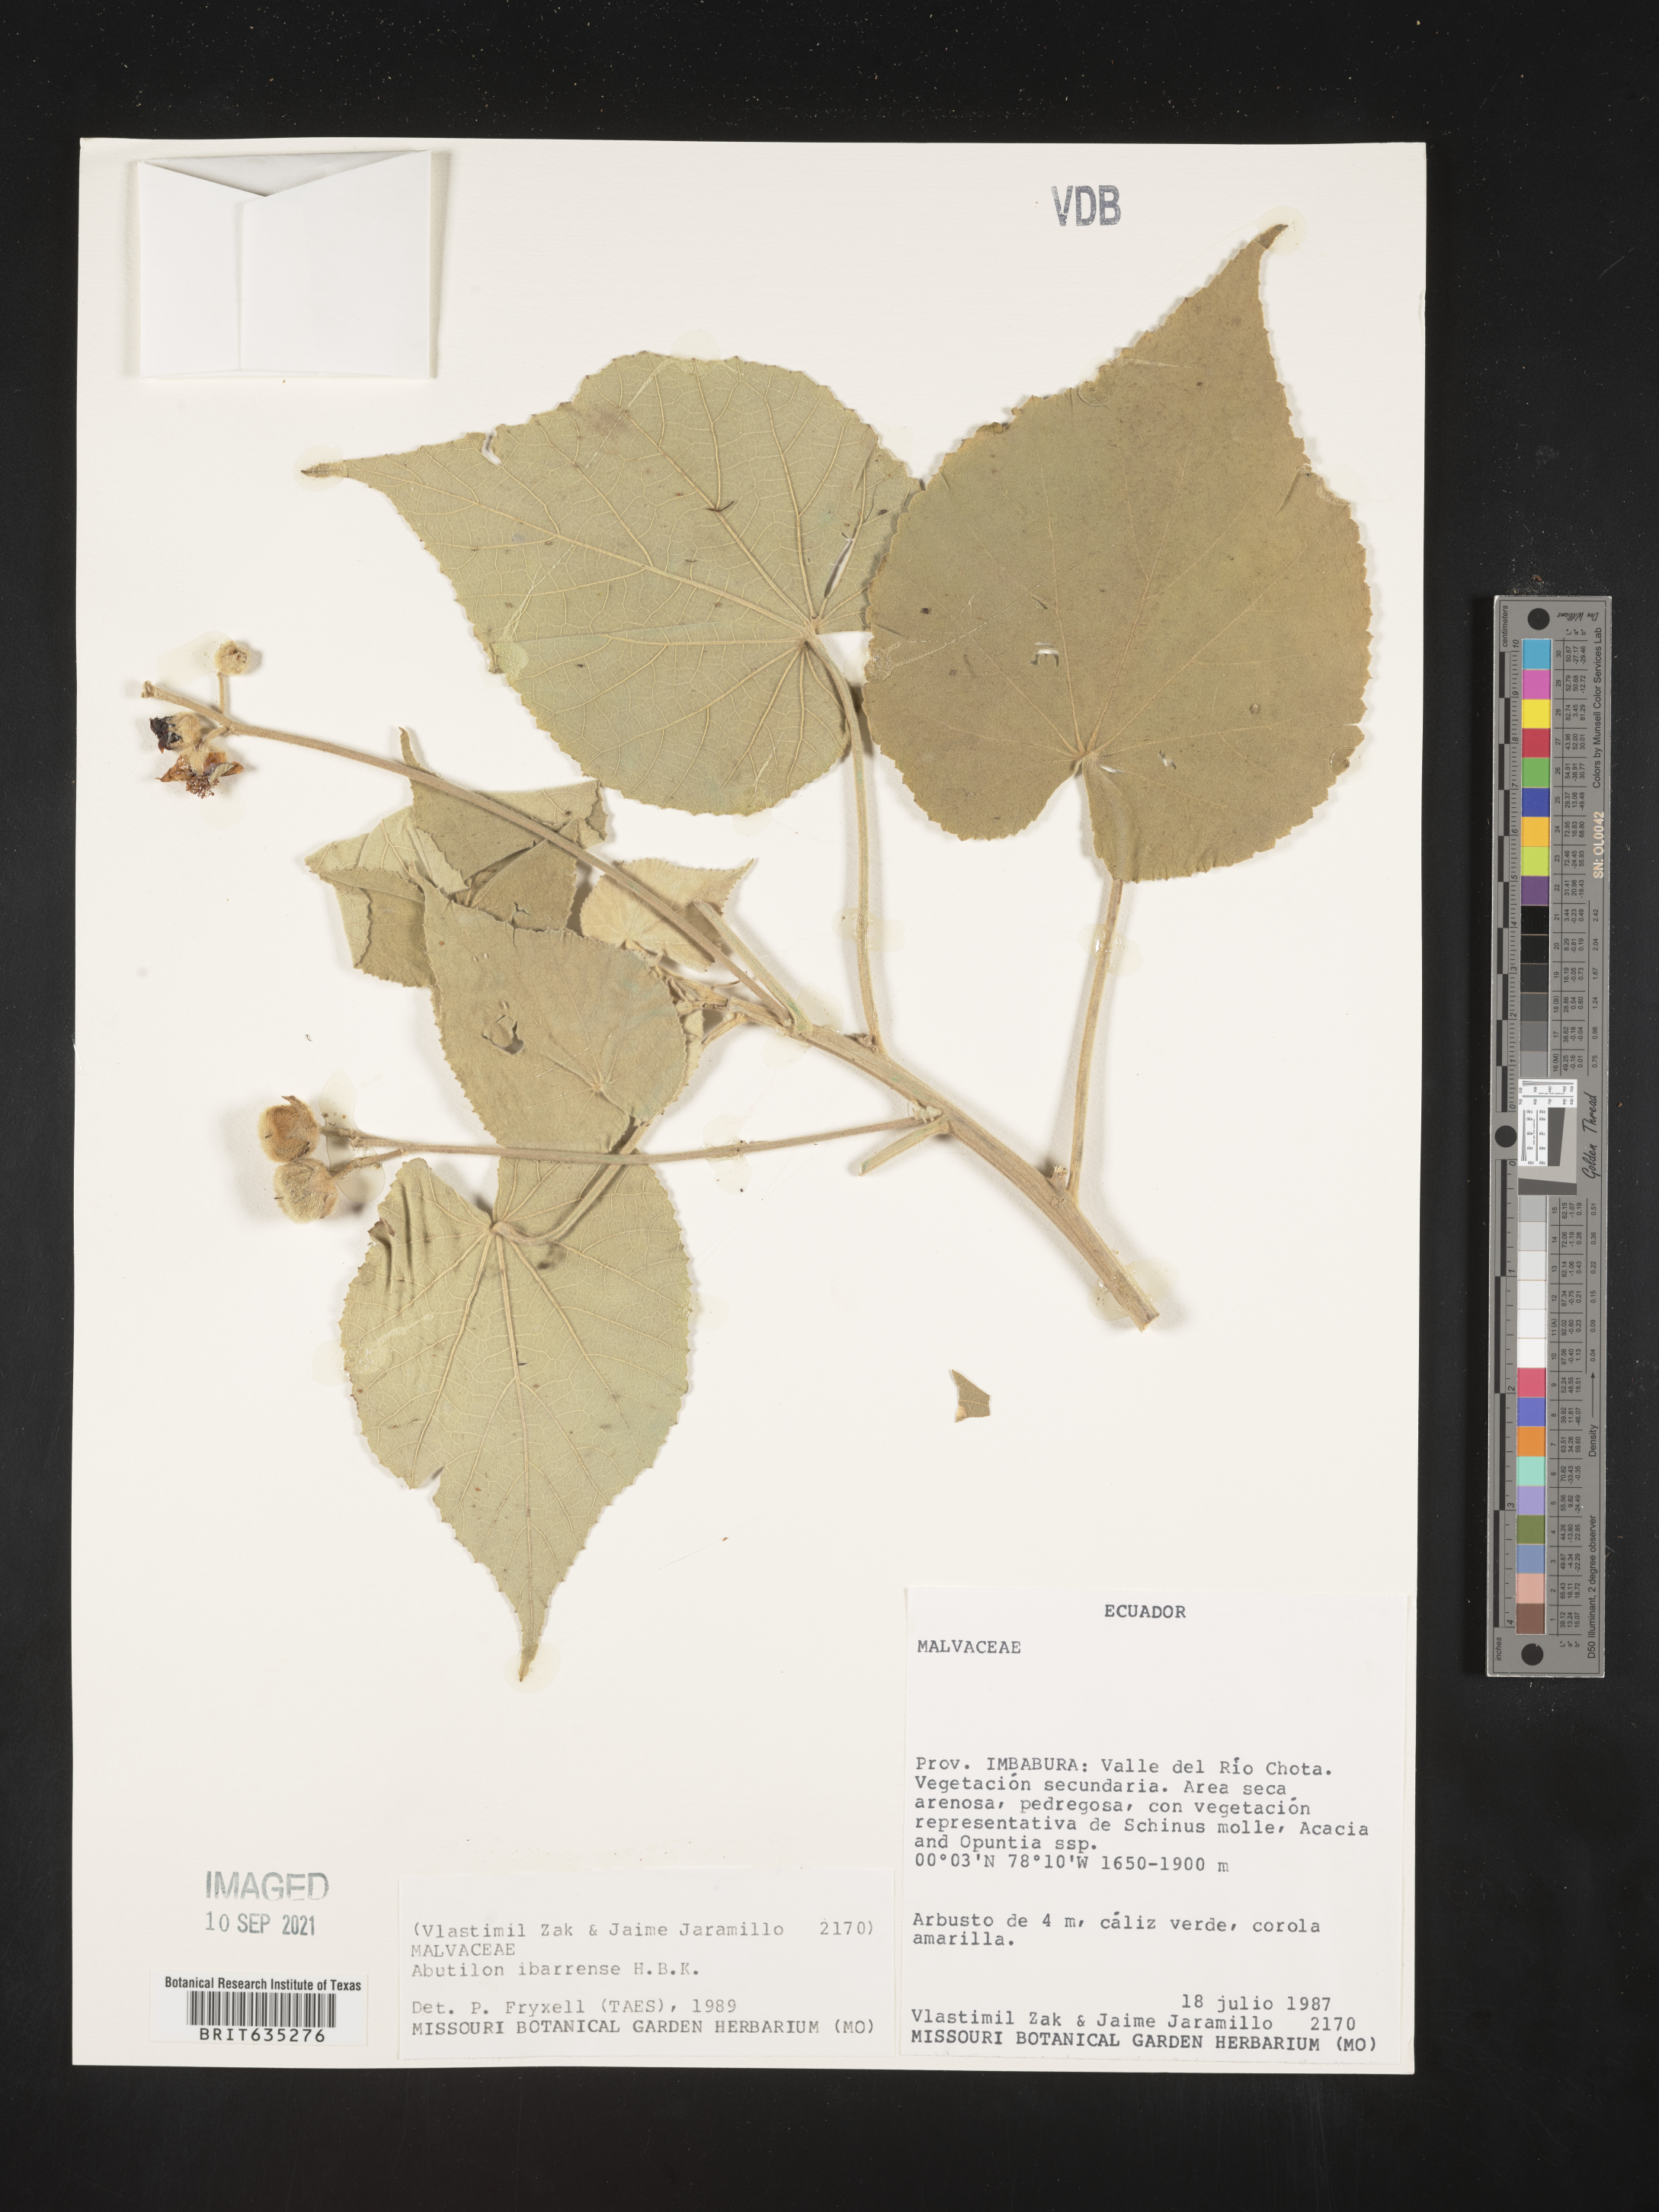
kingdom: Plantae
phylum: Tracheophyta
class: Magnoliopsida
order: Malvales
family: Malvaceae
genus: Abutilon
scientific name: Abutilon
